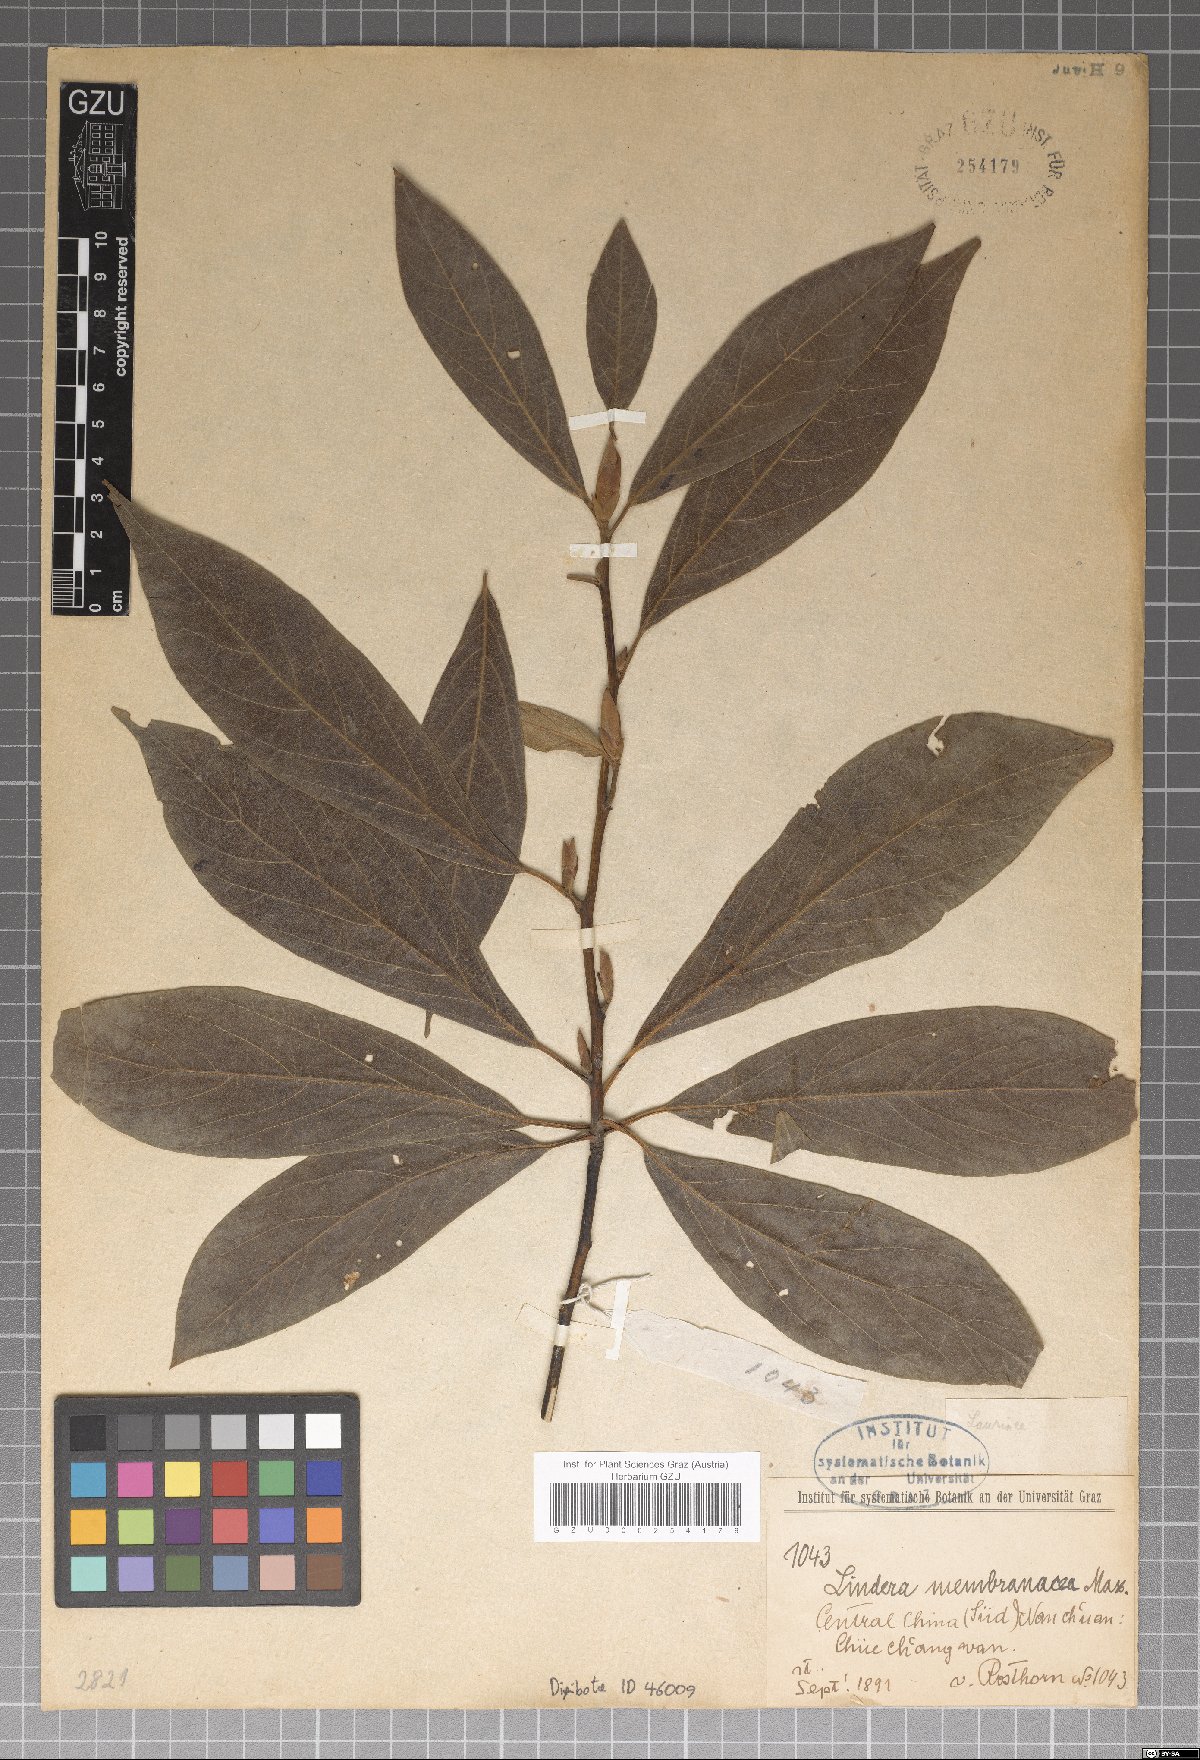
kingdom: Plantae
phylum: Tracheophyta
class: Magnoliopsida
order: Laurales
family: Lauraceae
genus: Lindera
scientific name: Lindera umbellata
